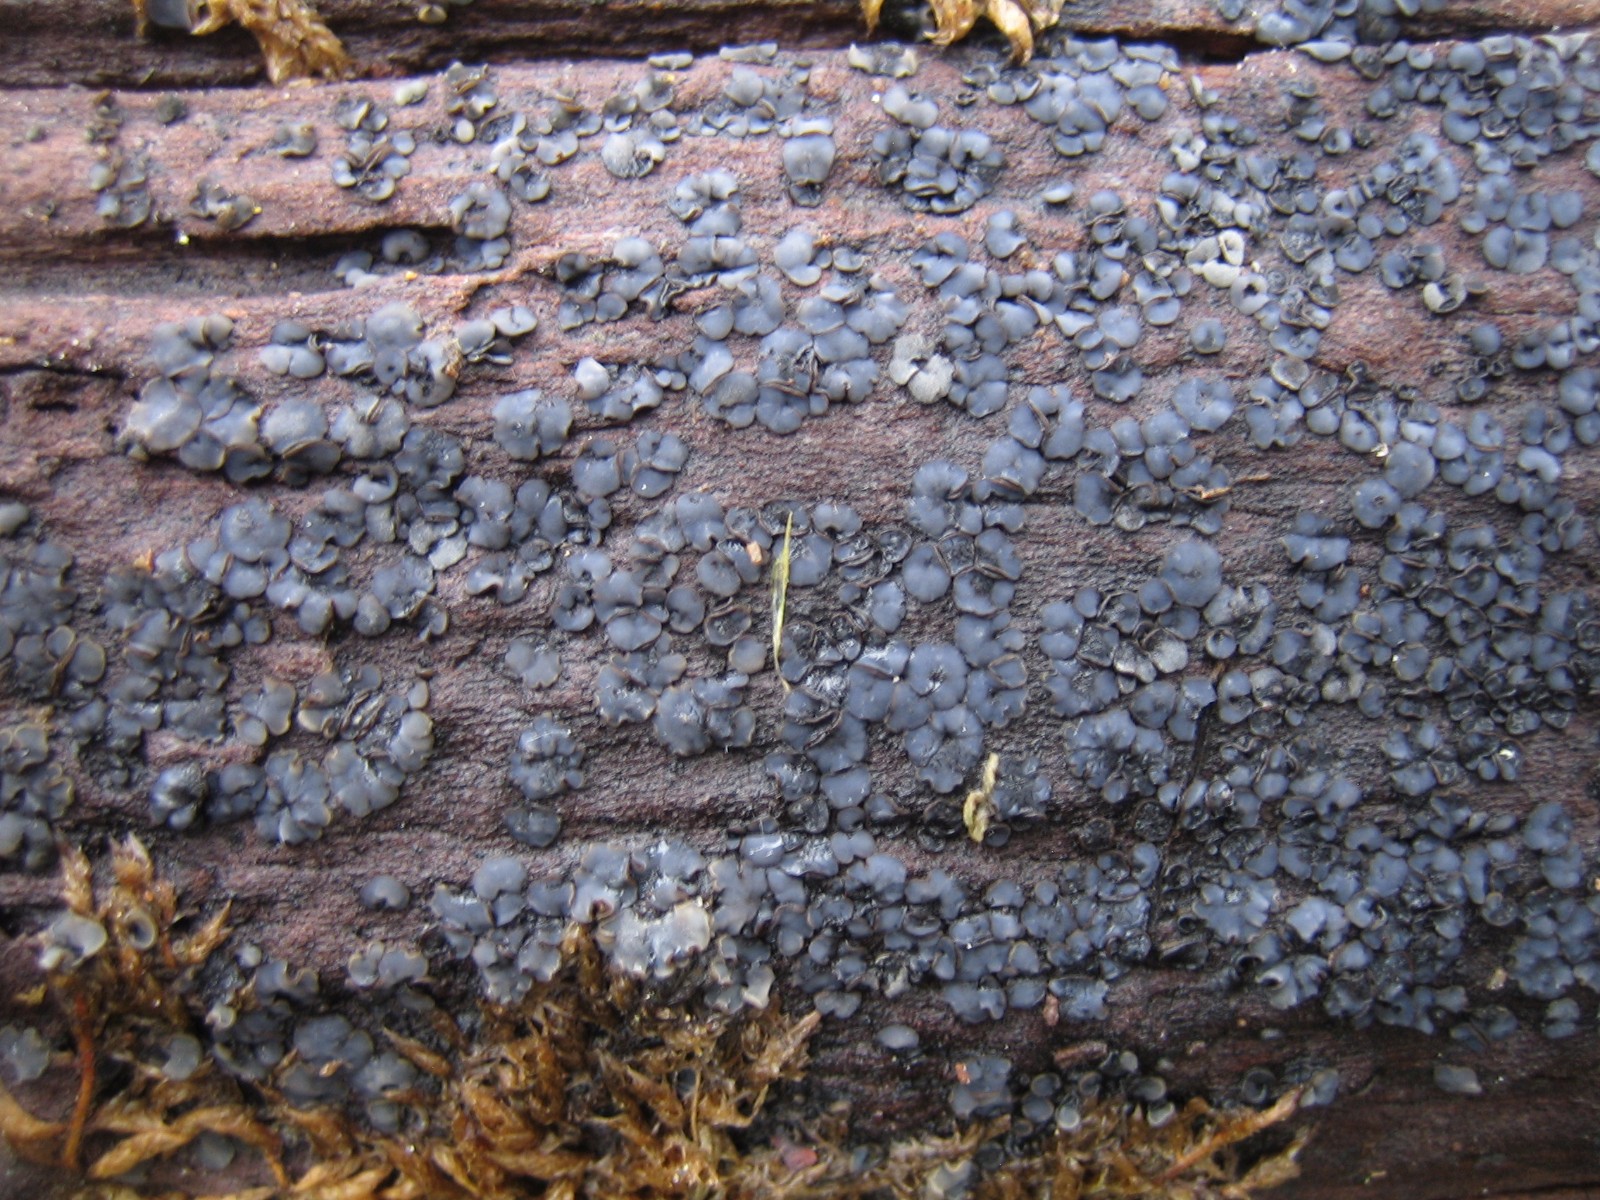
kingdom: Fungi
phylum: Ascomycota
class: Leotiomycetes
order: Helotiales
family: Mollisiaceae
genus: Mollisia
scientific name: Mollisia
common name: gråskive
